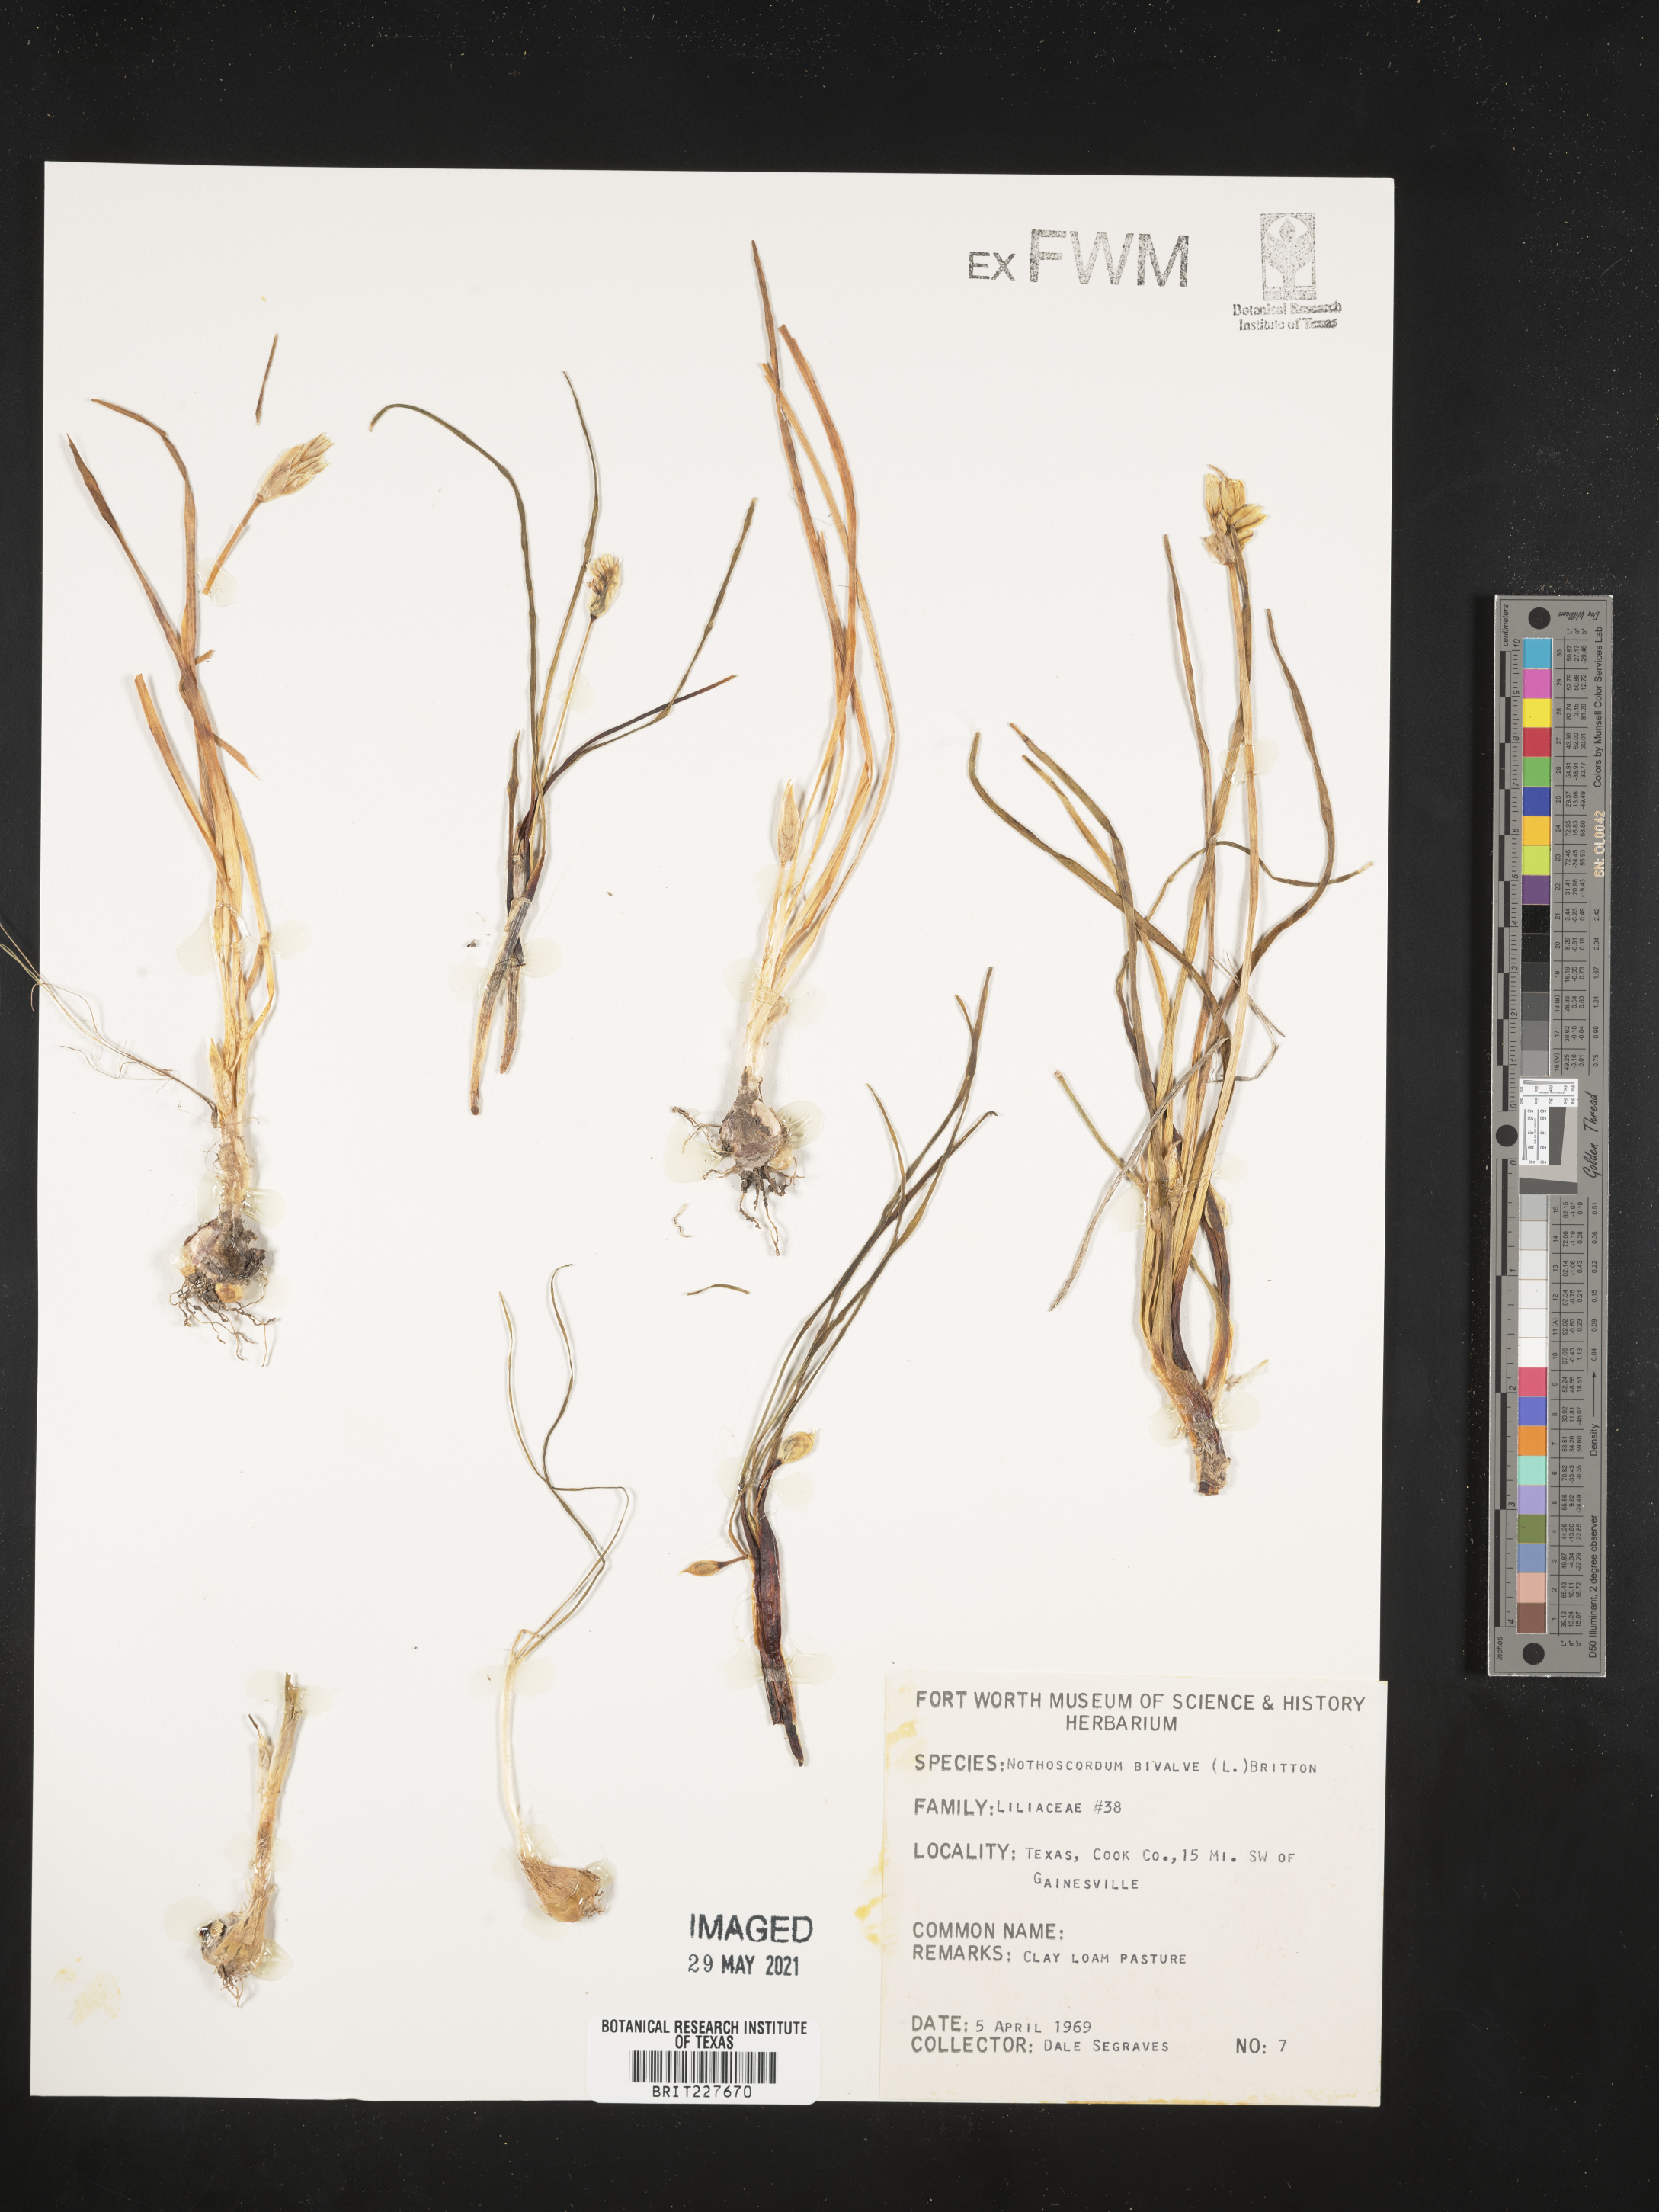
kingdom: Plantae
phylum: Tracheophyta
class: Liliopsida
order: Asparagales
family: Amaryllidaceae
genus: Nothoscordum
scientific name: Nothoscordum bivalve
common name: Crow-poison
